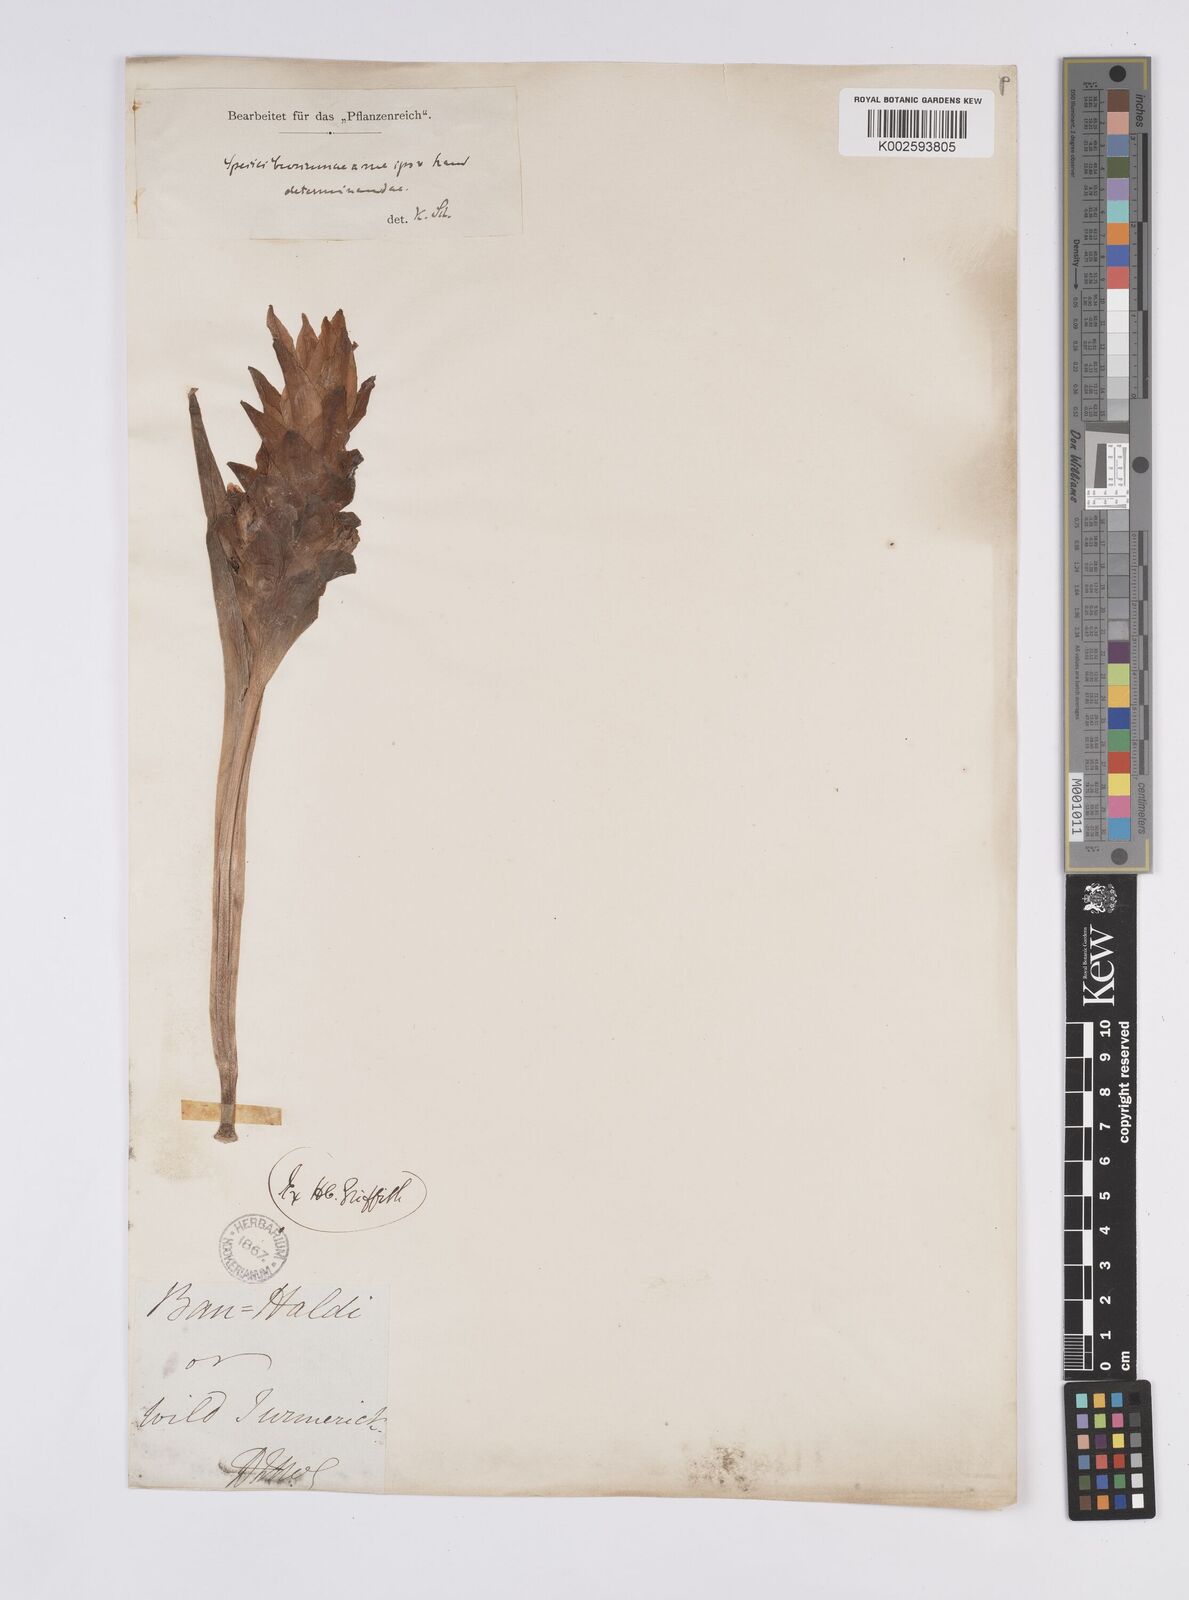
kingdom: Plantae
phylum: Tracheophyta
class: Liliopsida
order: Zingiberales
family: Zingiberaceae
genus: Curcuma
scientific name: Curcuma
